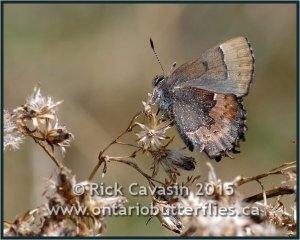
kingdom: Animalia
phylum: Arthropoda
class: Insecta
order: Lepidoptera
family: Lycaenidae
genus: Incisalia
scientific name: Incisalia henrici
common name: Henry's Elfin
